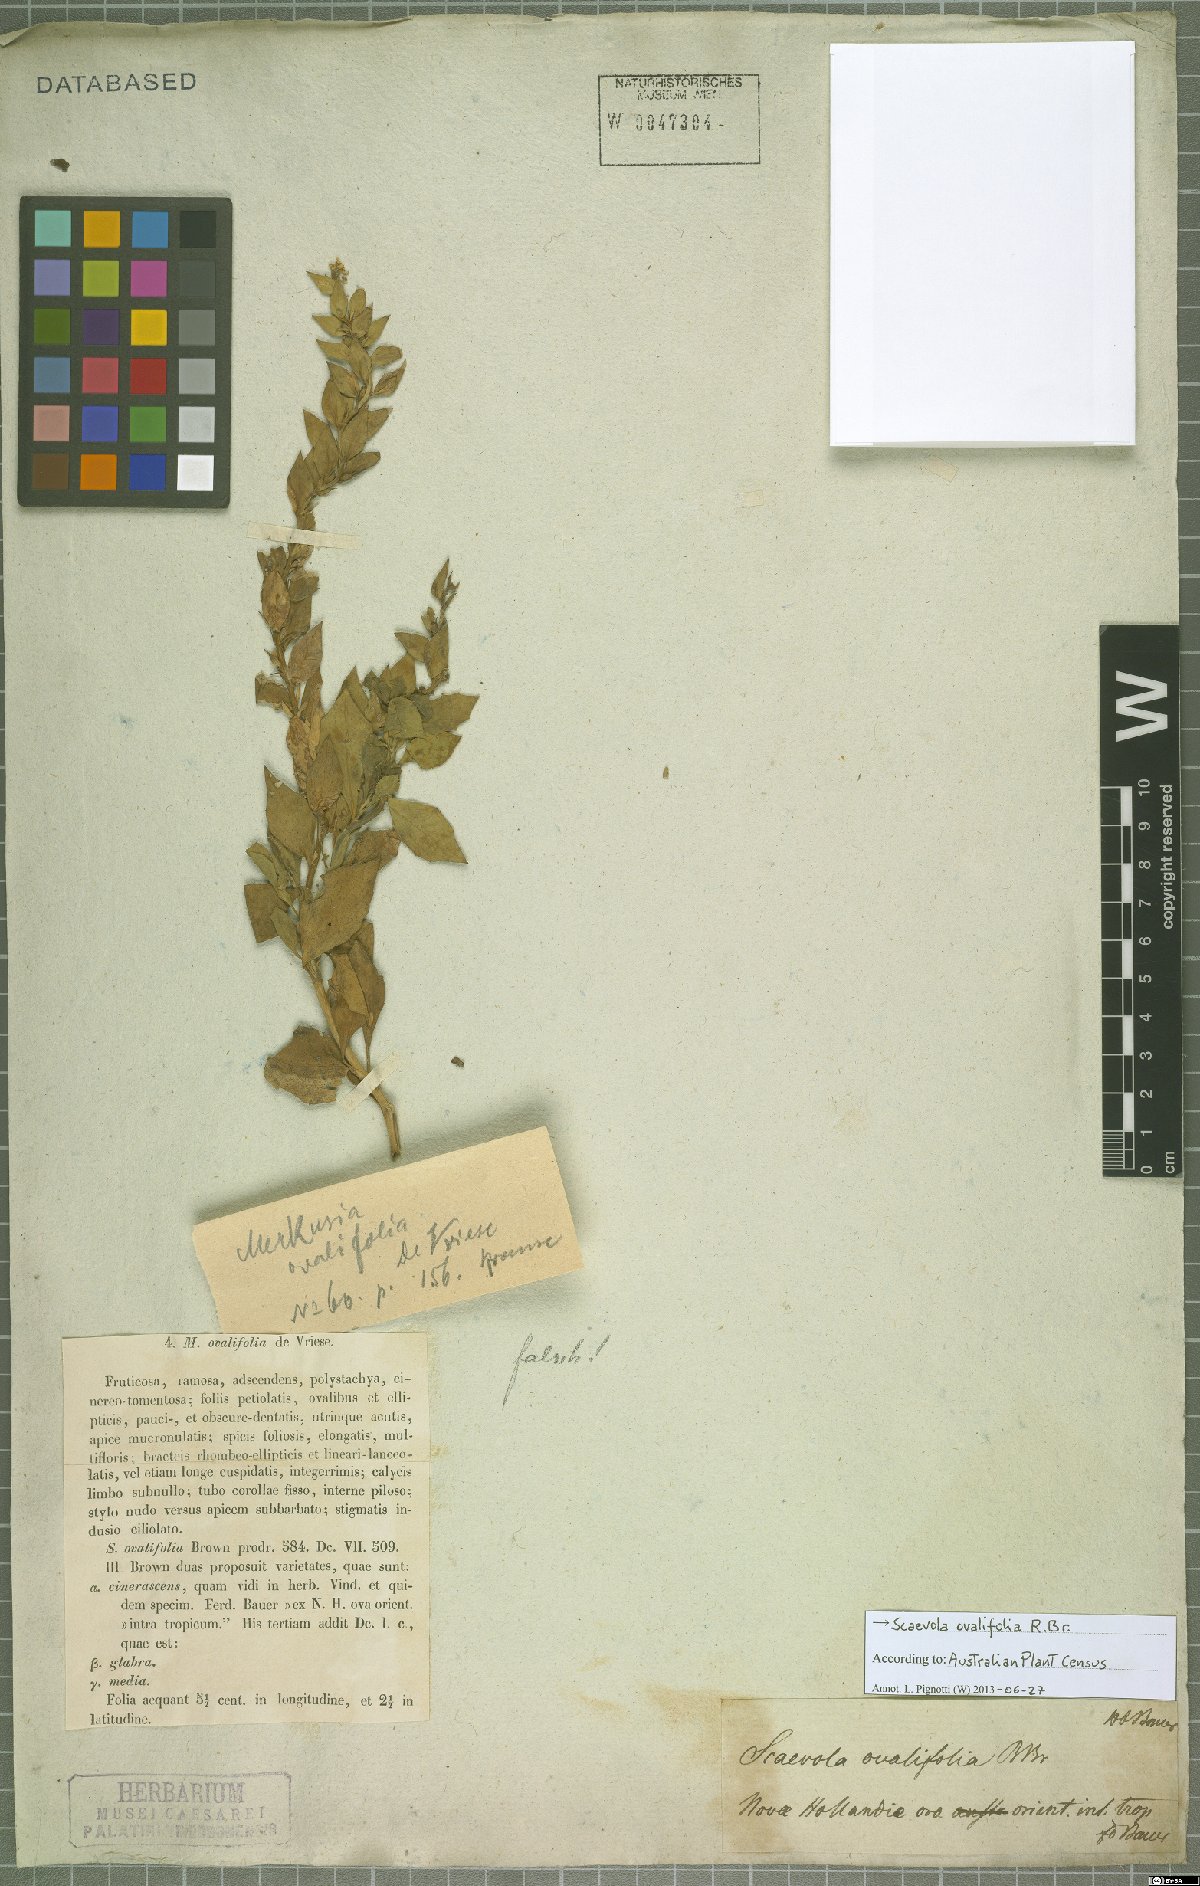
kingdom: Plantae
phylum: Tracheophyta
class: Magnoliopsida
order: Asterales
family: Goodeniaceae
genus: Scaevola
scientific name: Scaevola ovalifolia
